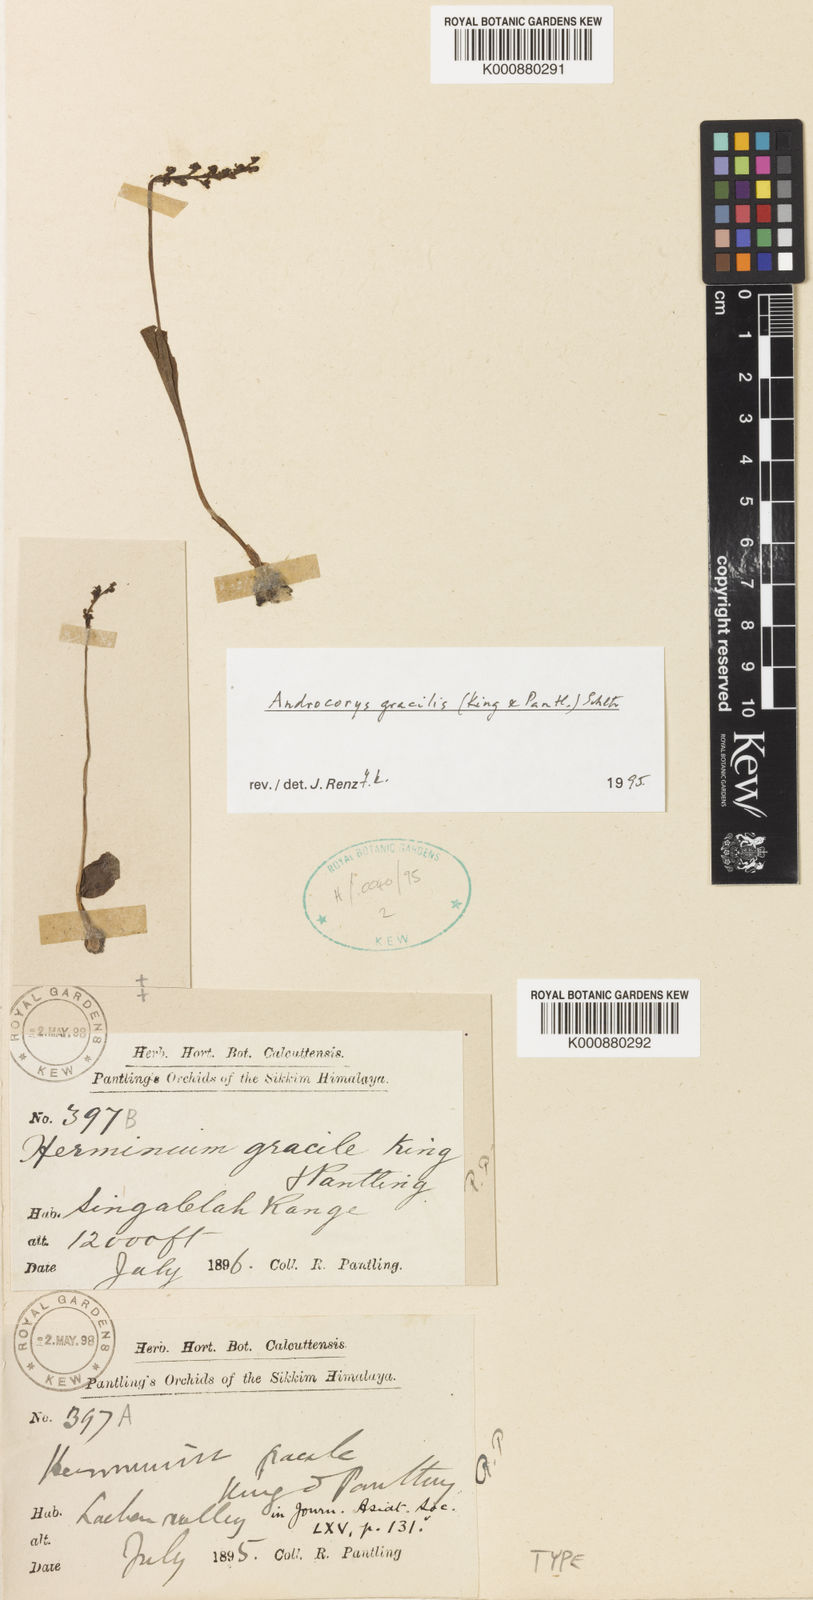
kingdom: Plantae
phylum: Tracheophyta
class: Liliopsida
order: Asparagales
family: Orchidaceae
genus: Herminium
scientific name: Herminium gracile
